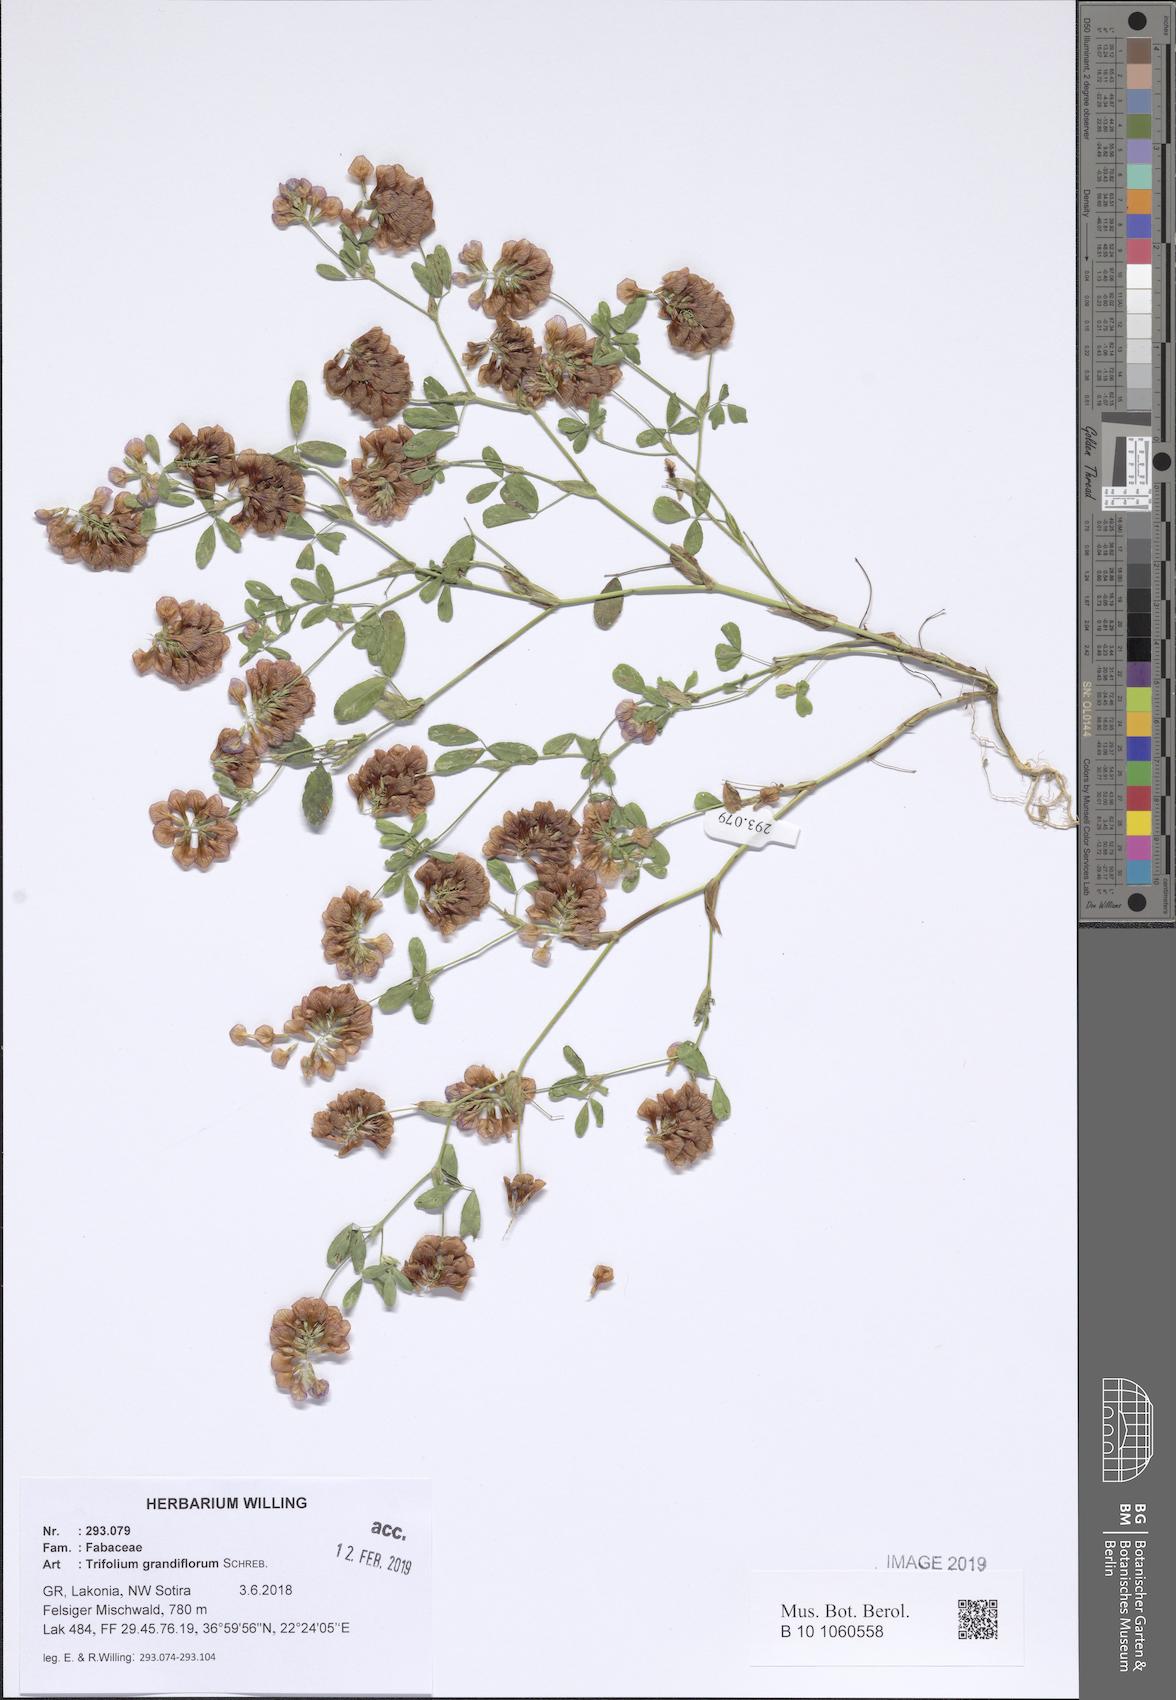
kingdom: Plantae
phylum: Tracheophyta
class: Magnoliopsida
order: Fabales
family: Fabaceae
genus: Trifolium
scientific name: Trifolium grandiflorum
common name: Large-flower hop clover
